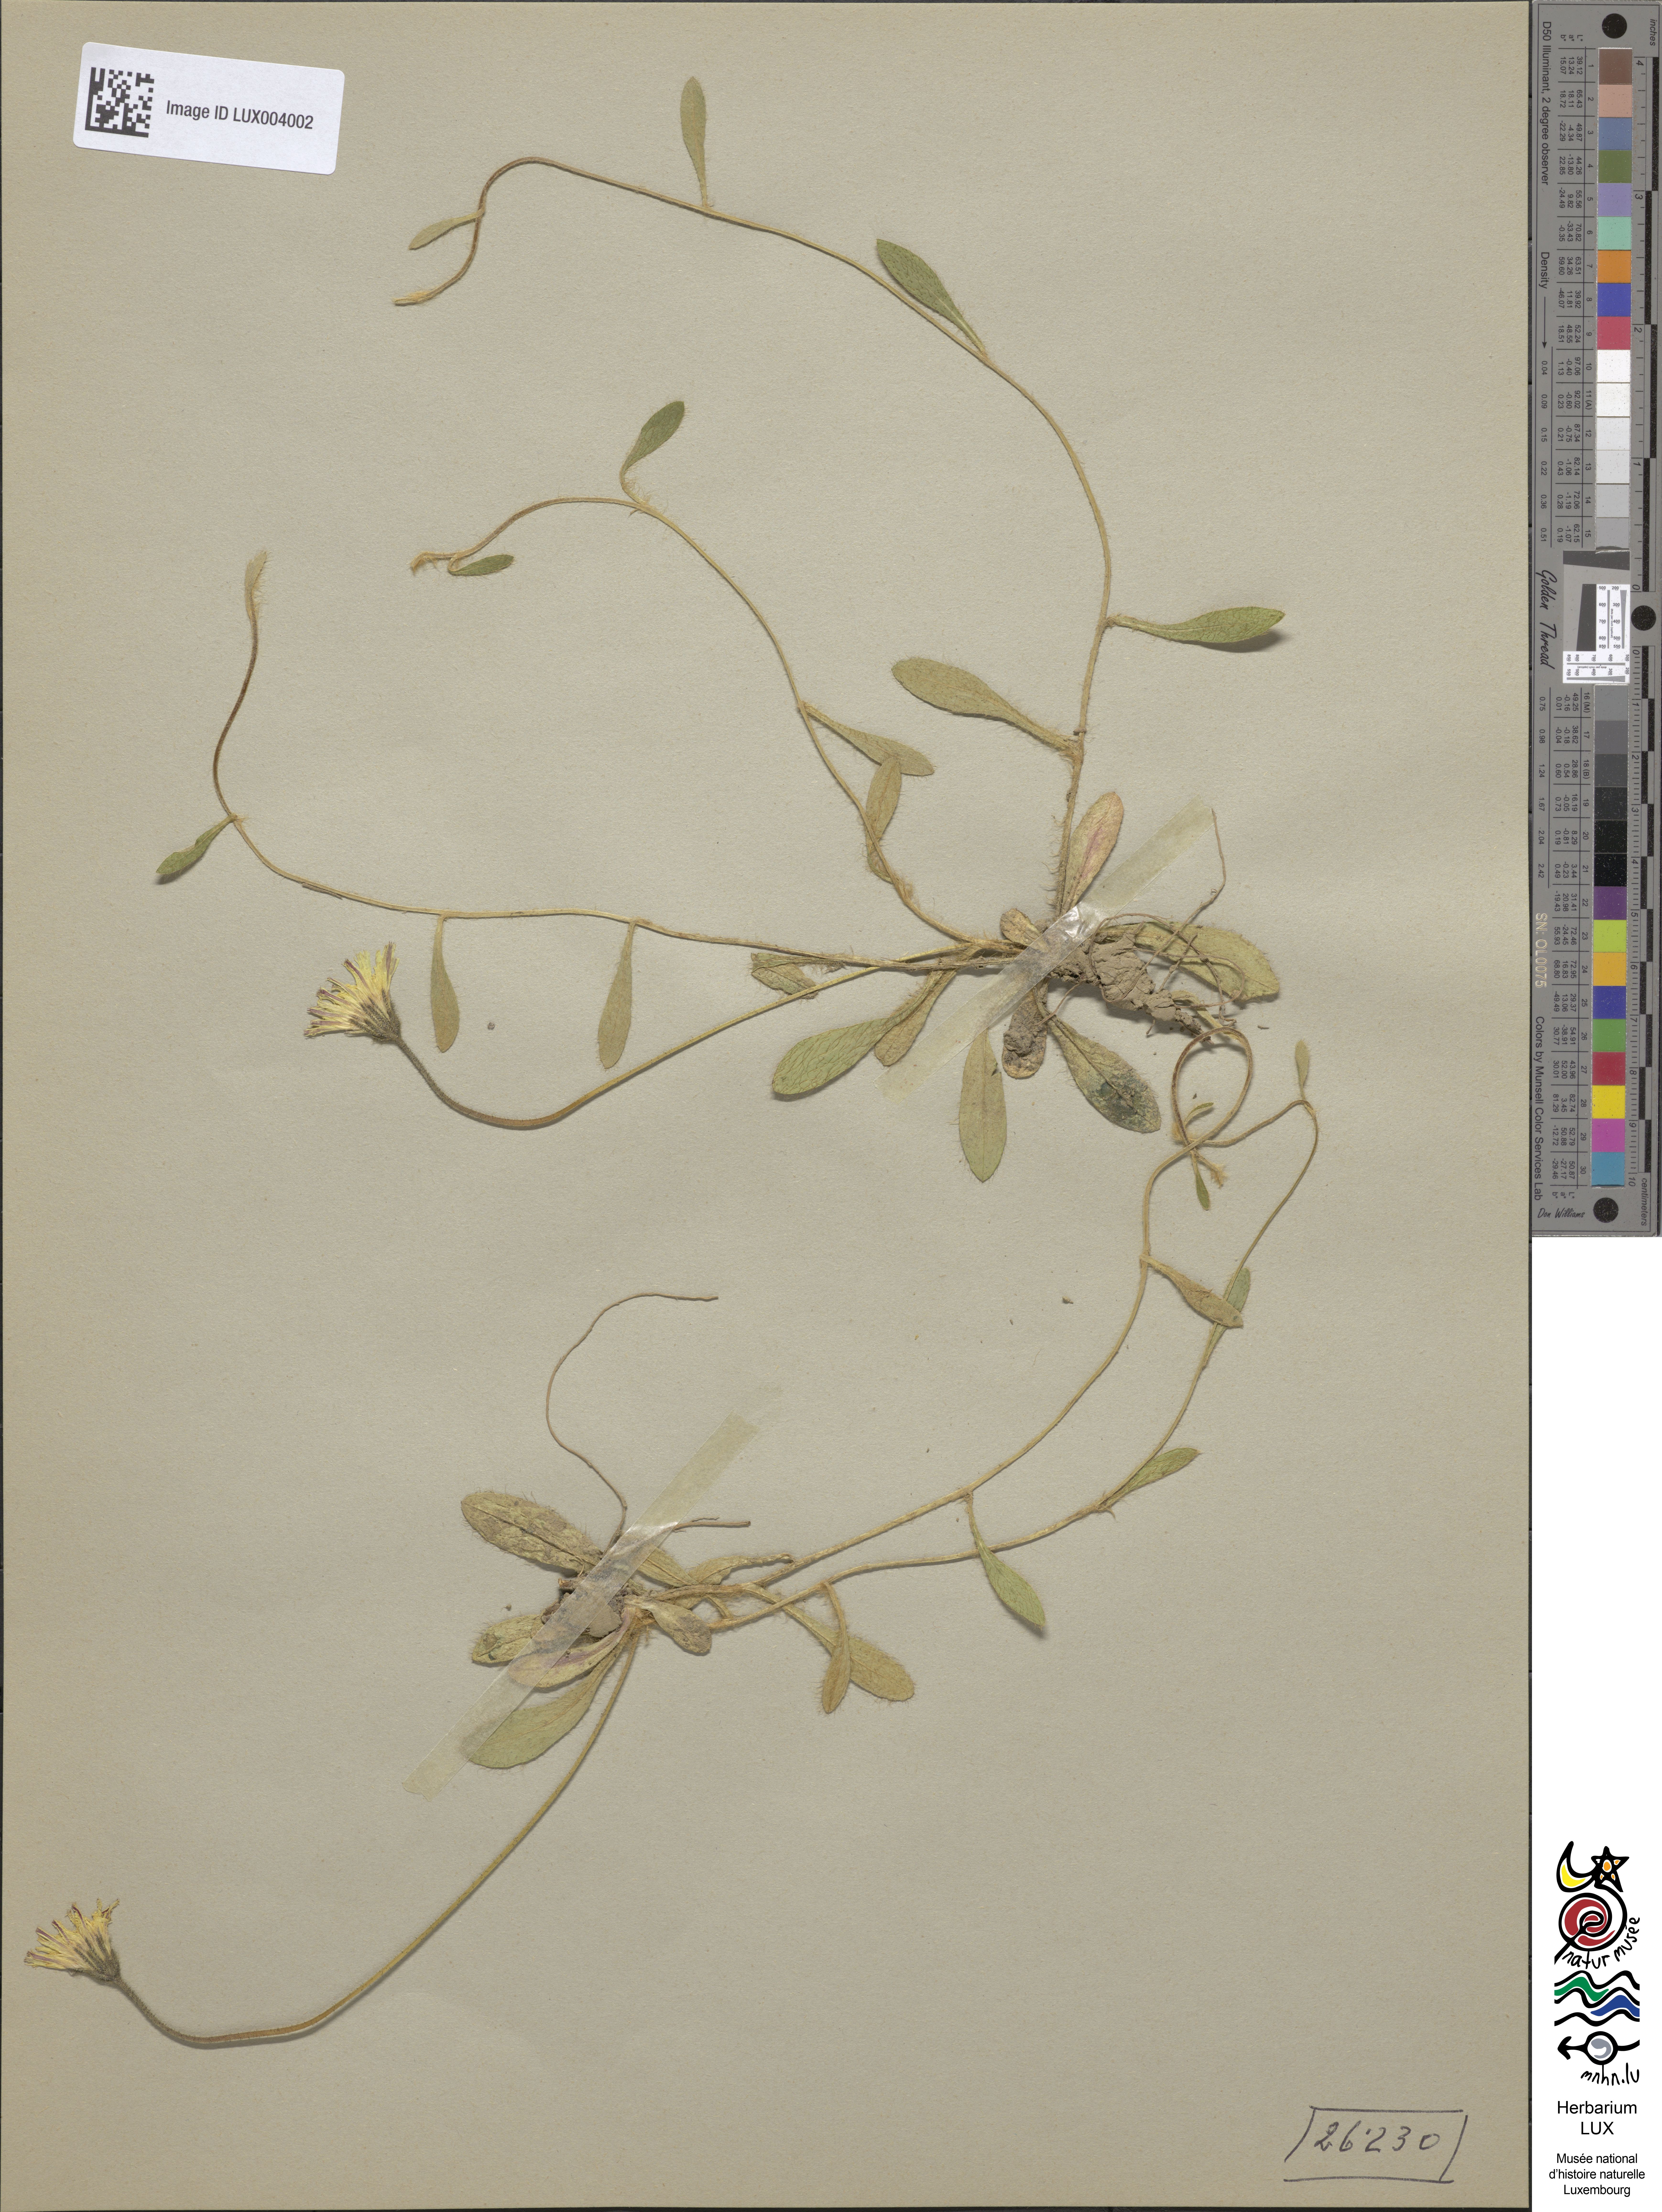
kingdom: Plantae
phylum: Tracheophyta
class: Magnoliopsida
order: Asterales
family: Asteraceae
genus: Pilosella
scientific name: Pilosella officinarum
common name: Mouse-ear hawkweed
